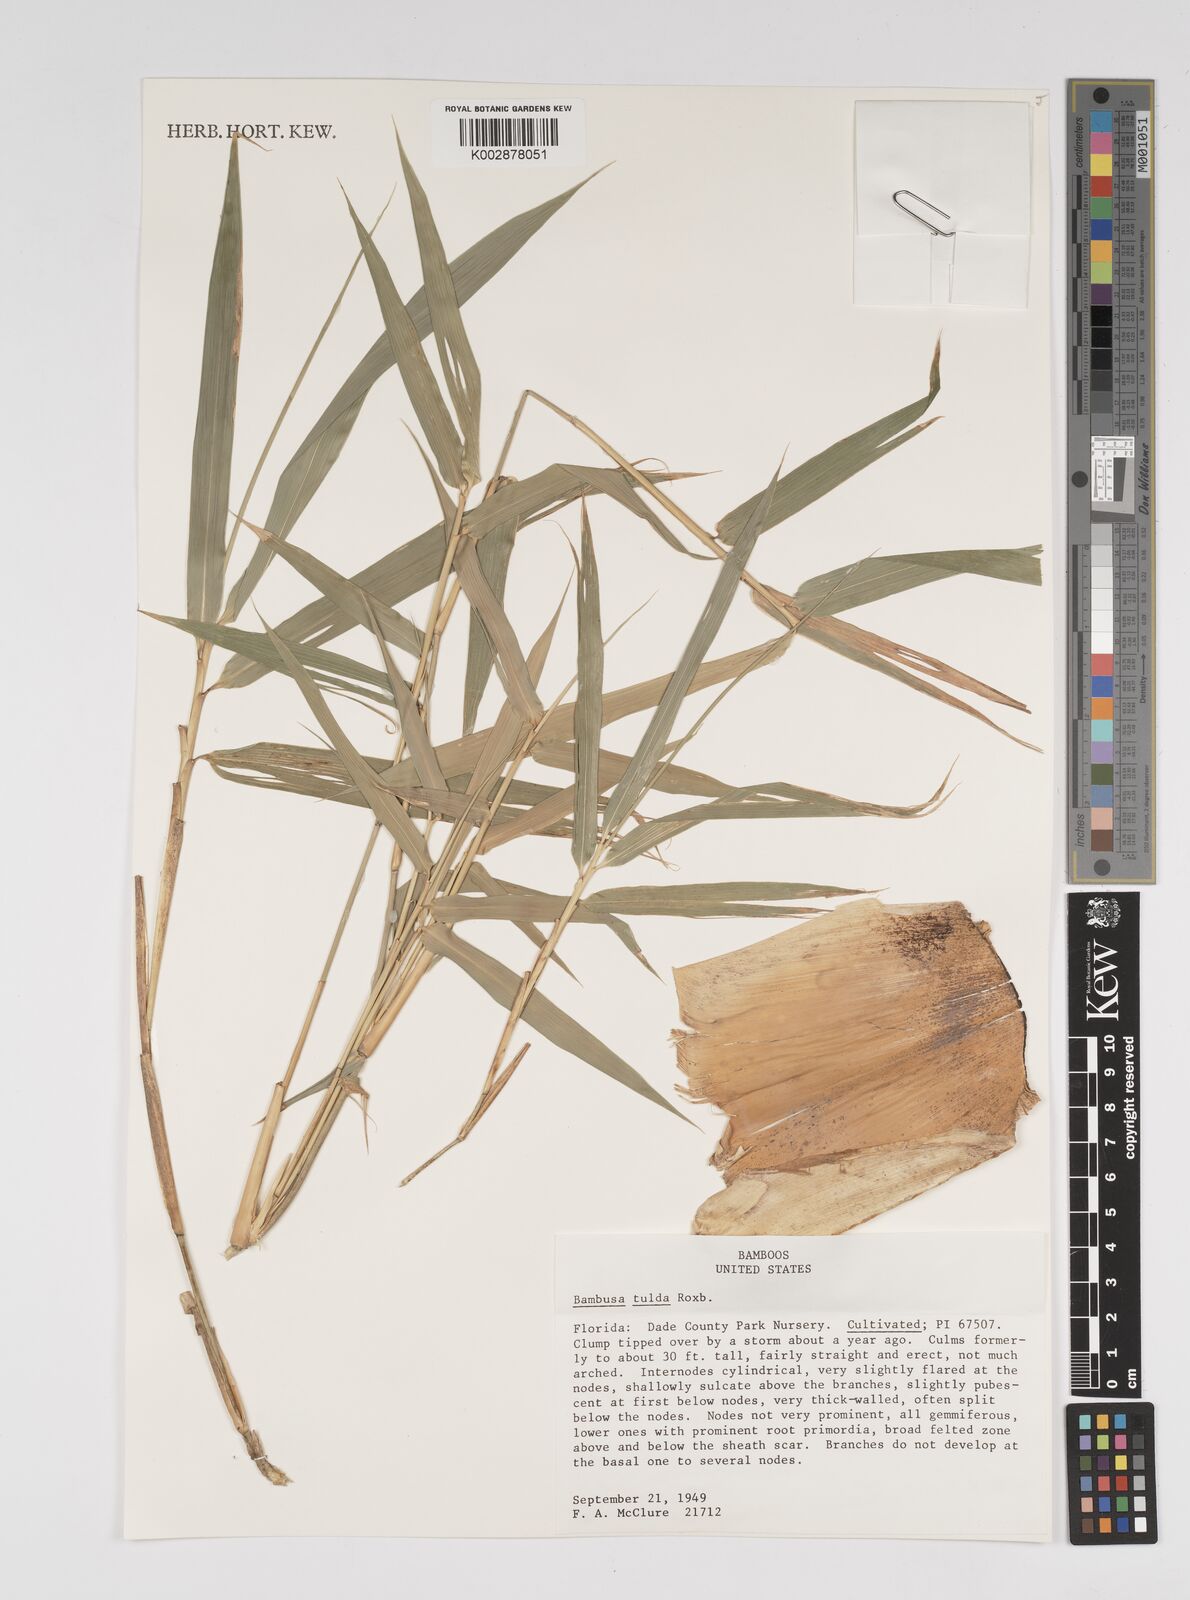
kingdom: Plantae
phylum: Tracheophyta
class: Liliopsida
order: Poales
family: Poaceae
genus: Bambusa
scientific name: Bambusa tulda
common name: Bengal bamboo
